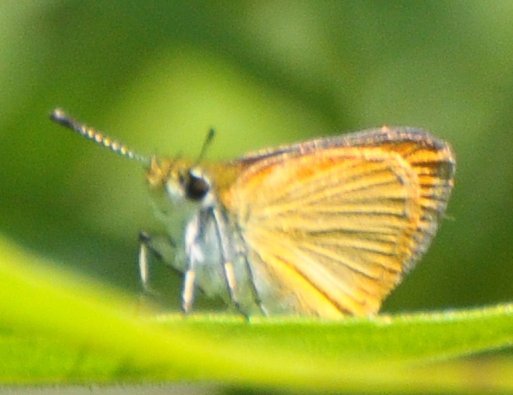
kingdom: Animalia
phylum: Arthropoda
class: Insecta
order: Lepidoptera
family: Hesperiidae
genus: Ancyloxypha
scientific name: Ancyloxypha numitor
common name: Least Skipper
